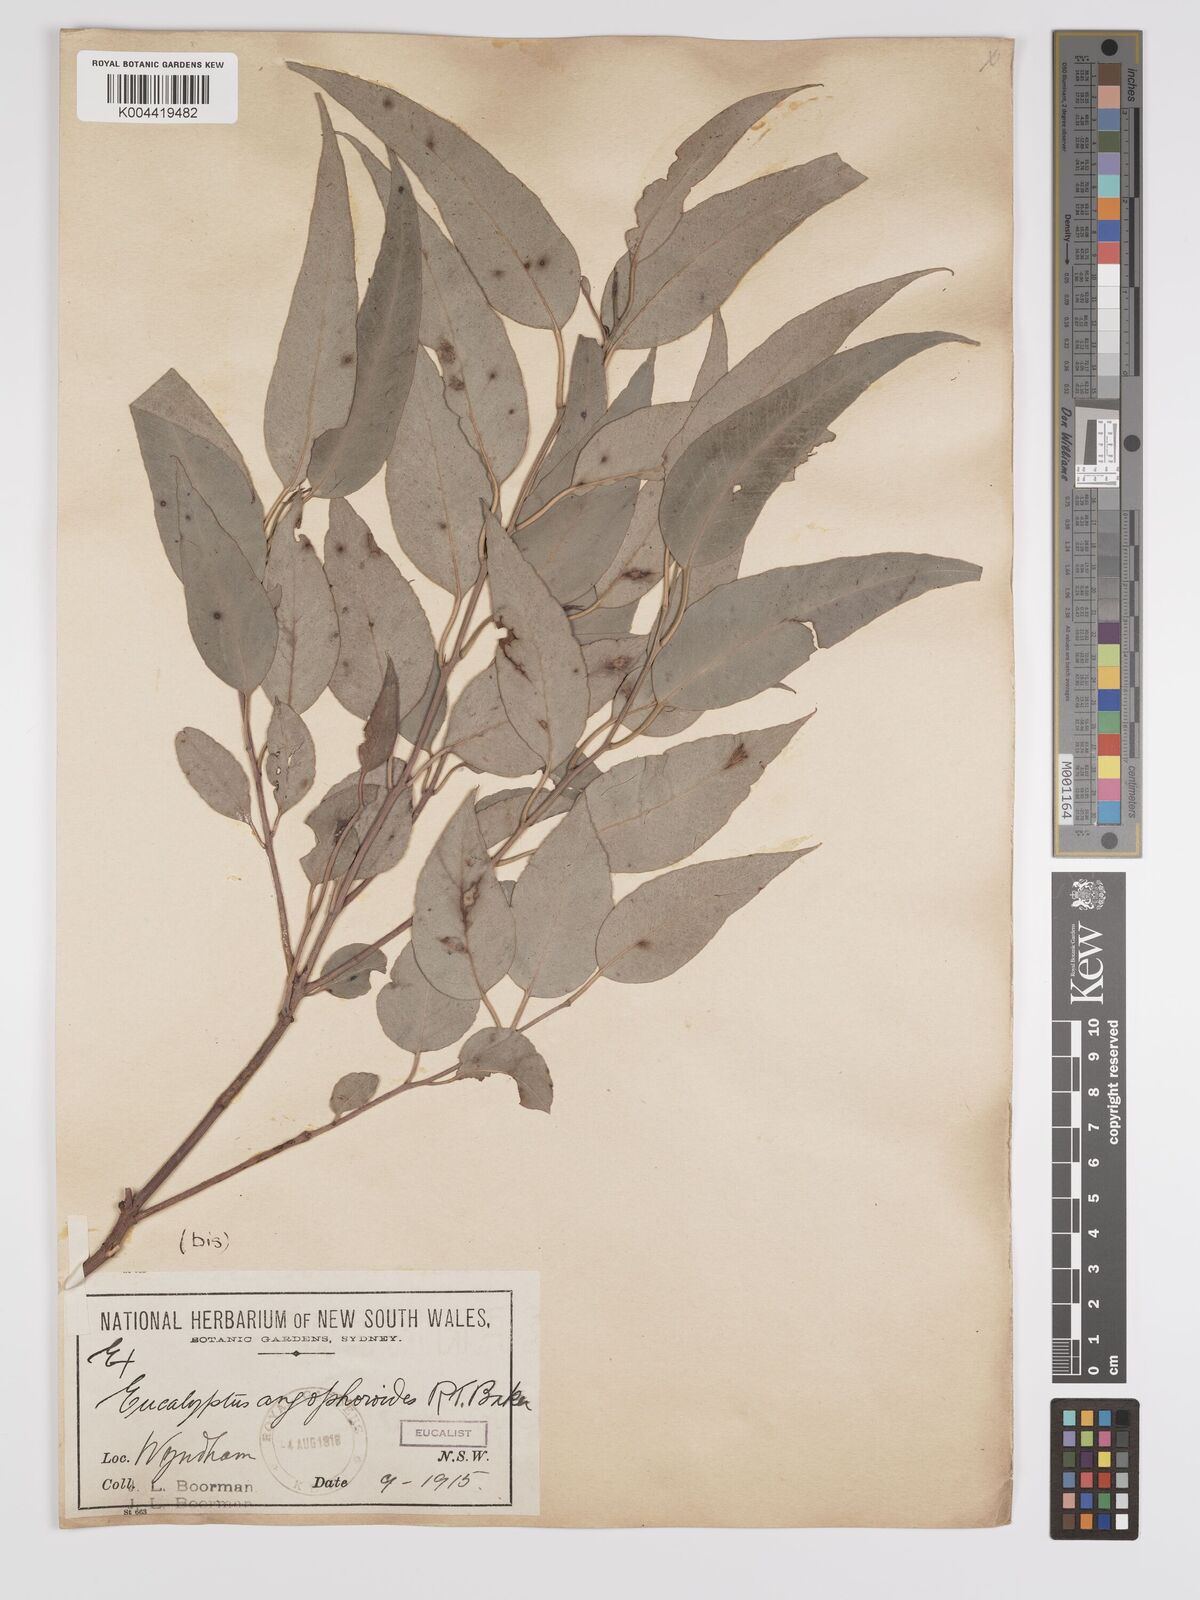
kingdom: Plantae
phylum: Tracheophyta
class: Magnoliopsida
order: Myrtales
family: Myrtaceae
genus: Eucalyptus
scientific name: Eucalyptus angophoroides
